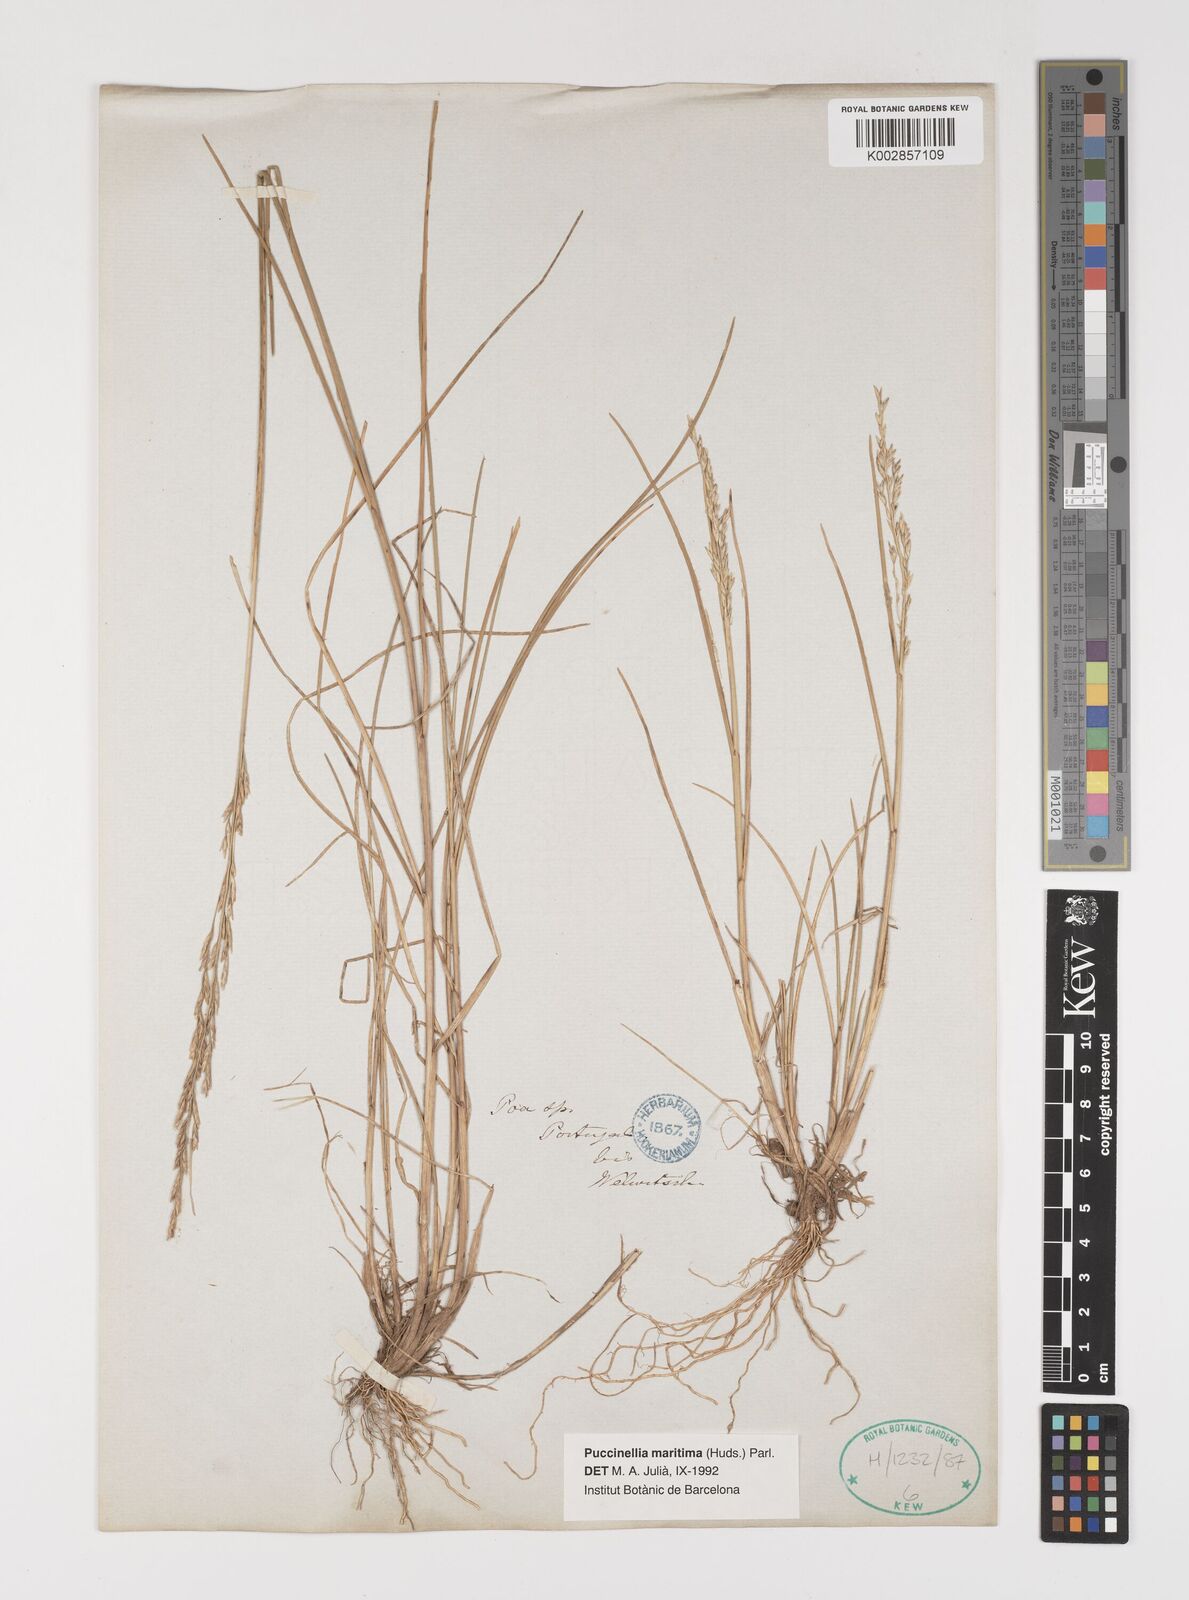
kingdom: Plantae
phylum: Tracheophyta
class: Liliopsida
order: Poales
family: Poaceae
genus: Puccinellia
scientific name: Puccinellia maritima
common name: Common saltmarsh grass
